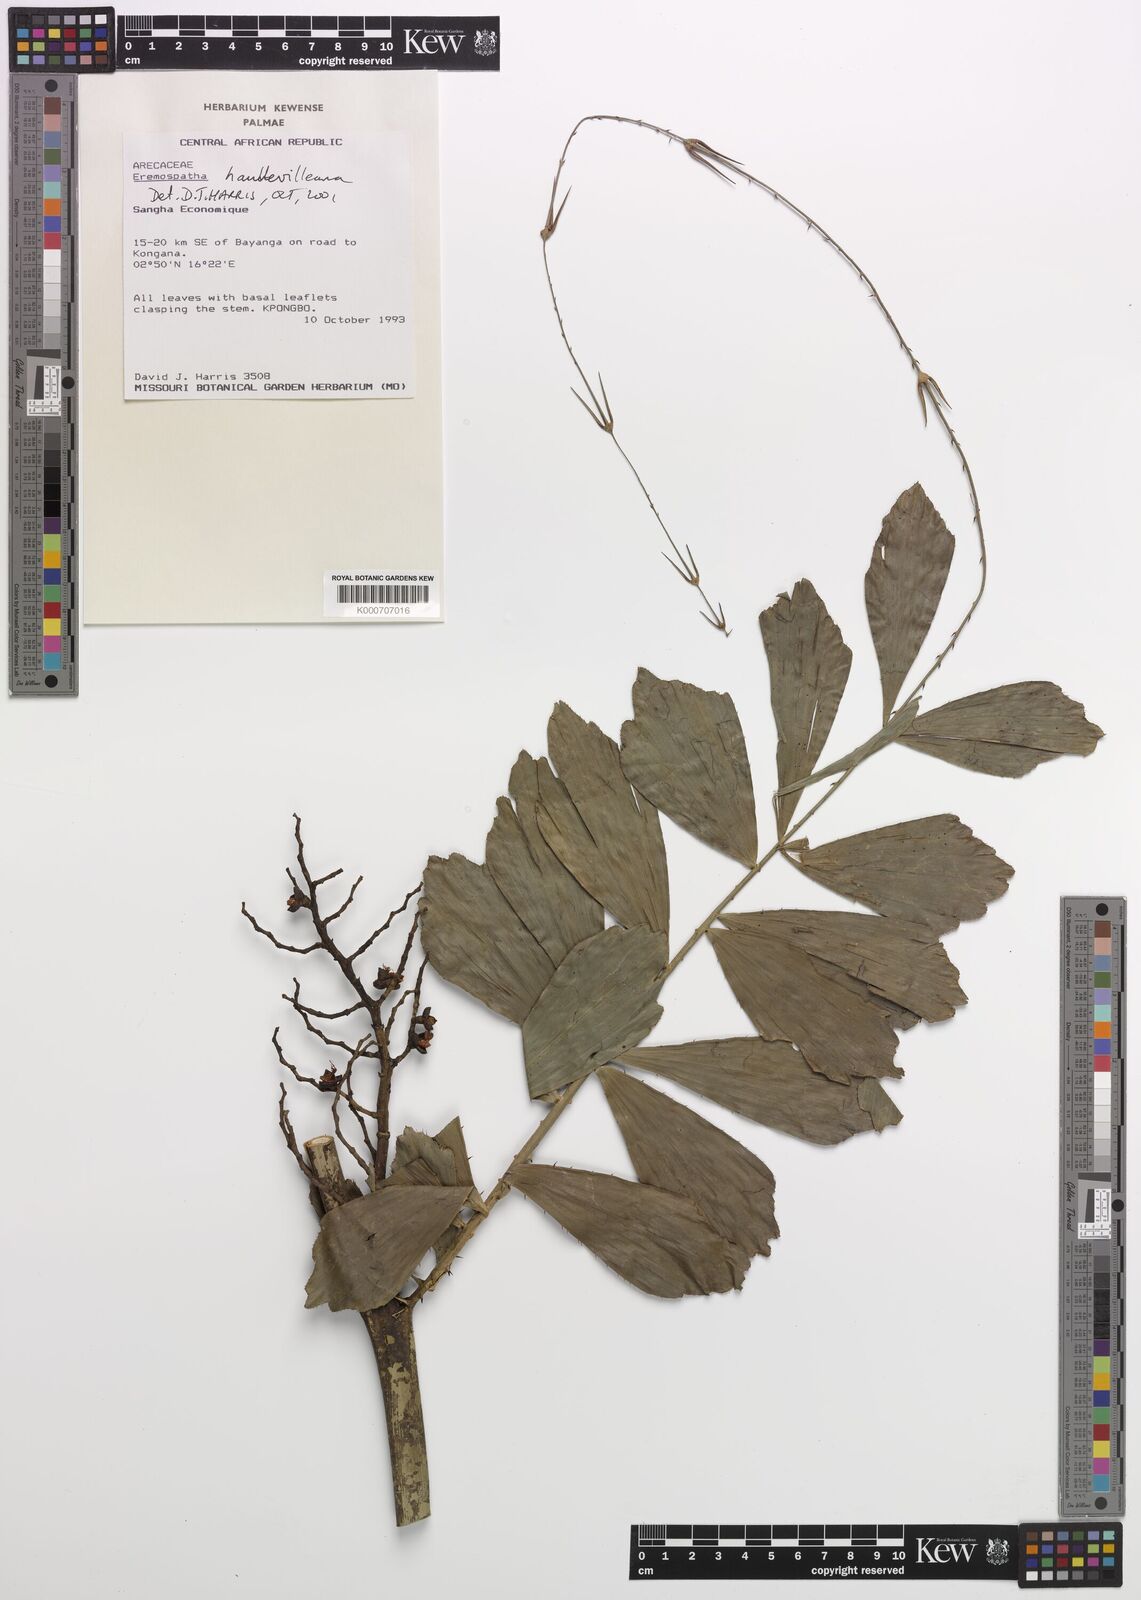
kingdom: Plantae
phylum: Tracheophyta
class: Liliopsida
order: Arecales
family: Arecaceae
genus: Eremospatha
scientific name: Eremospatha haullevilleana
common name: Rattan
